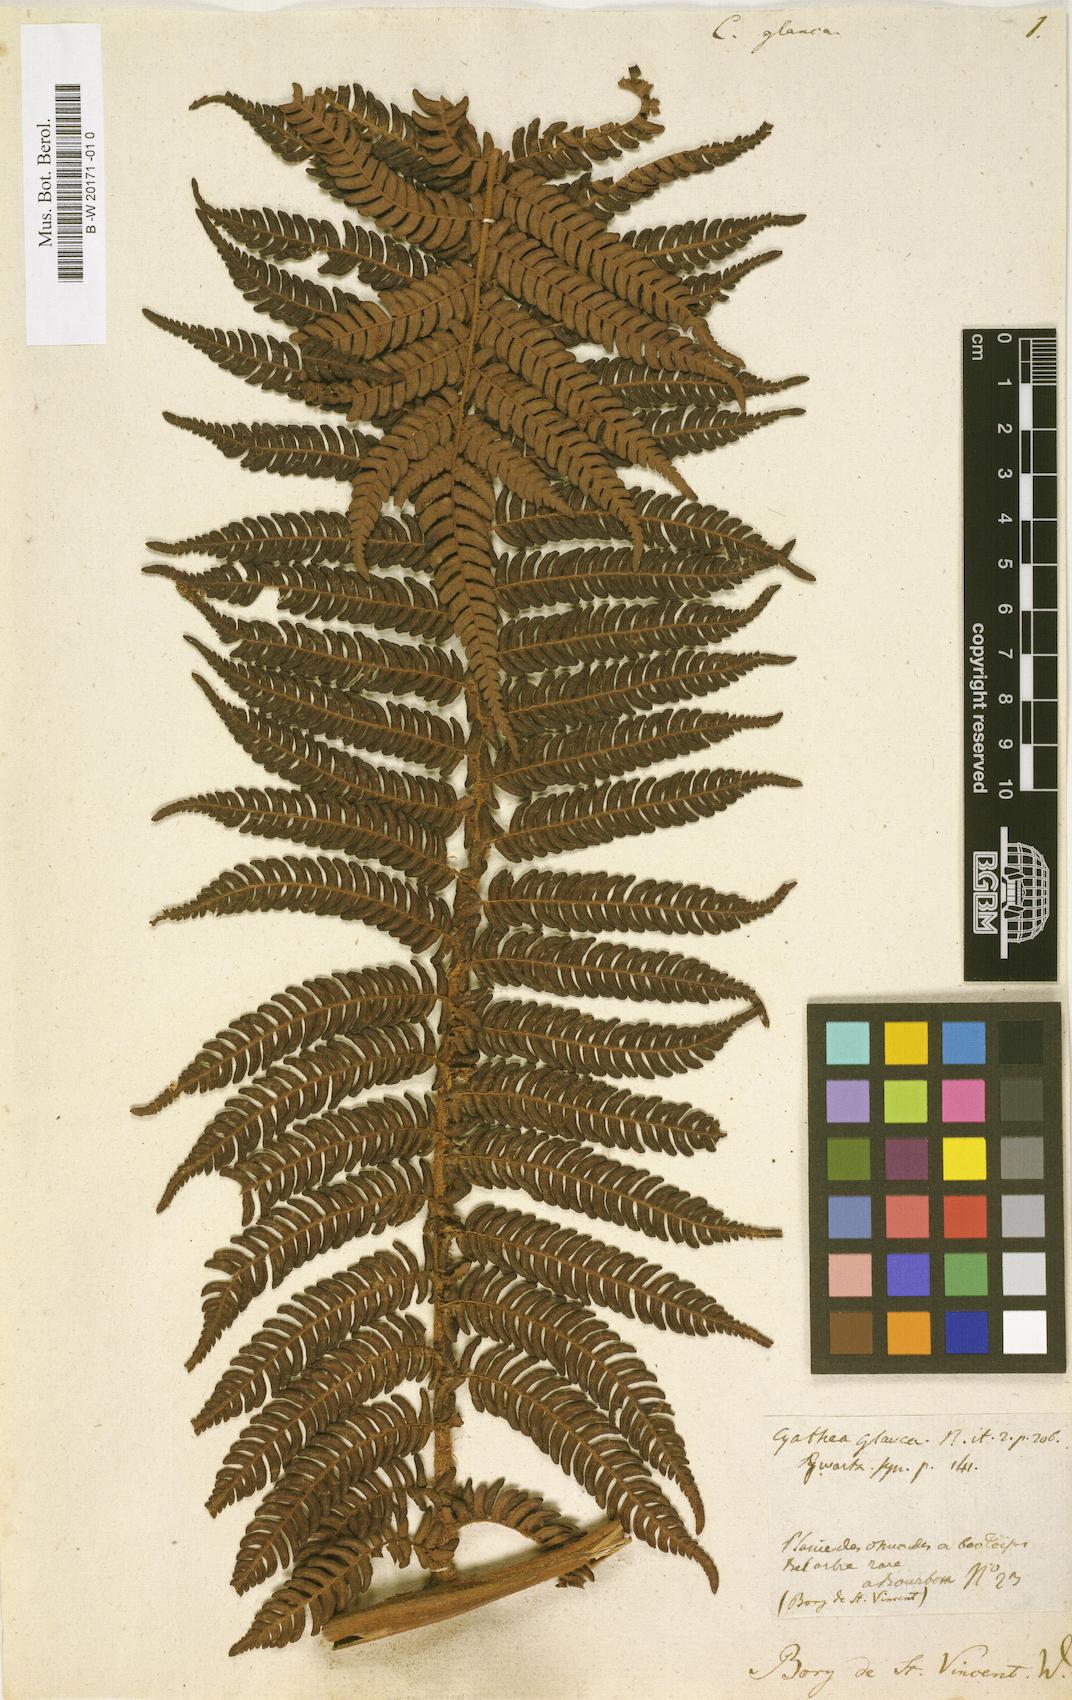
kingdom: Plantae
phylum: Tracheophyta
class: Polypodiopsida
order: Cyatheales
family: Cyatheaceae
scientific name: Cyatheaceae
